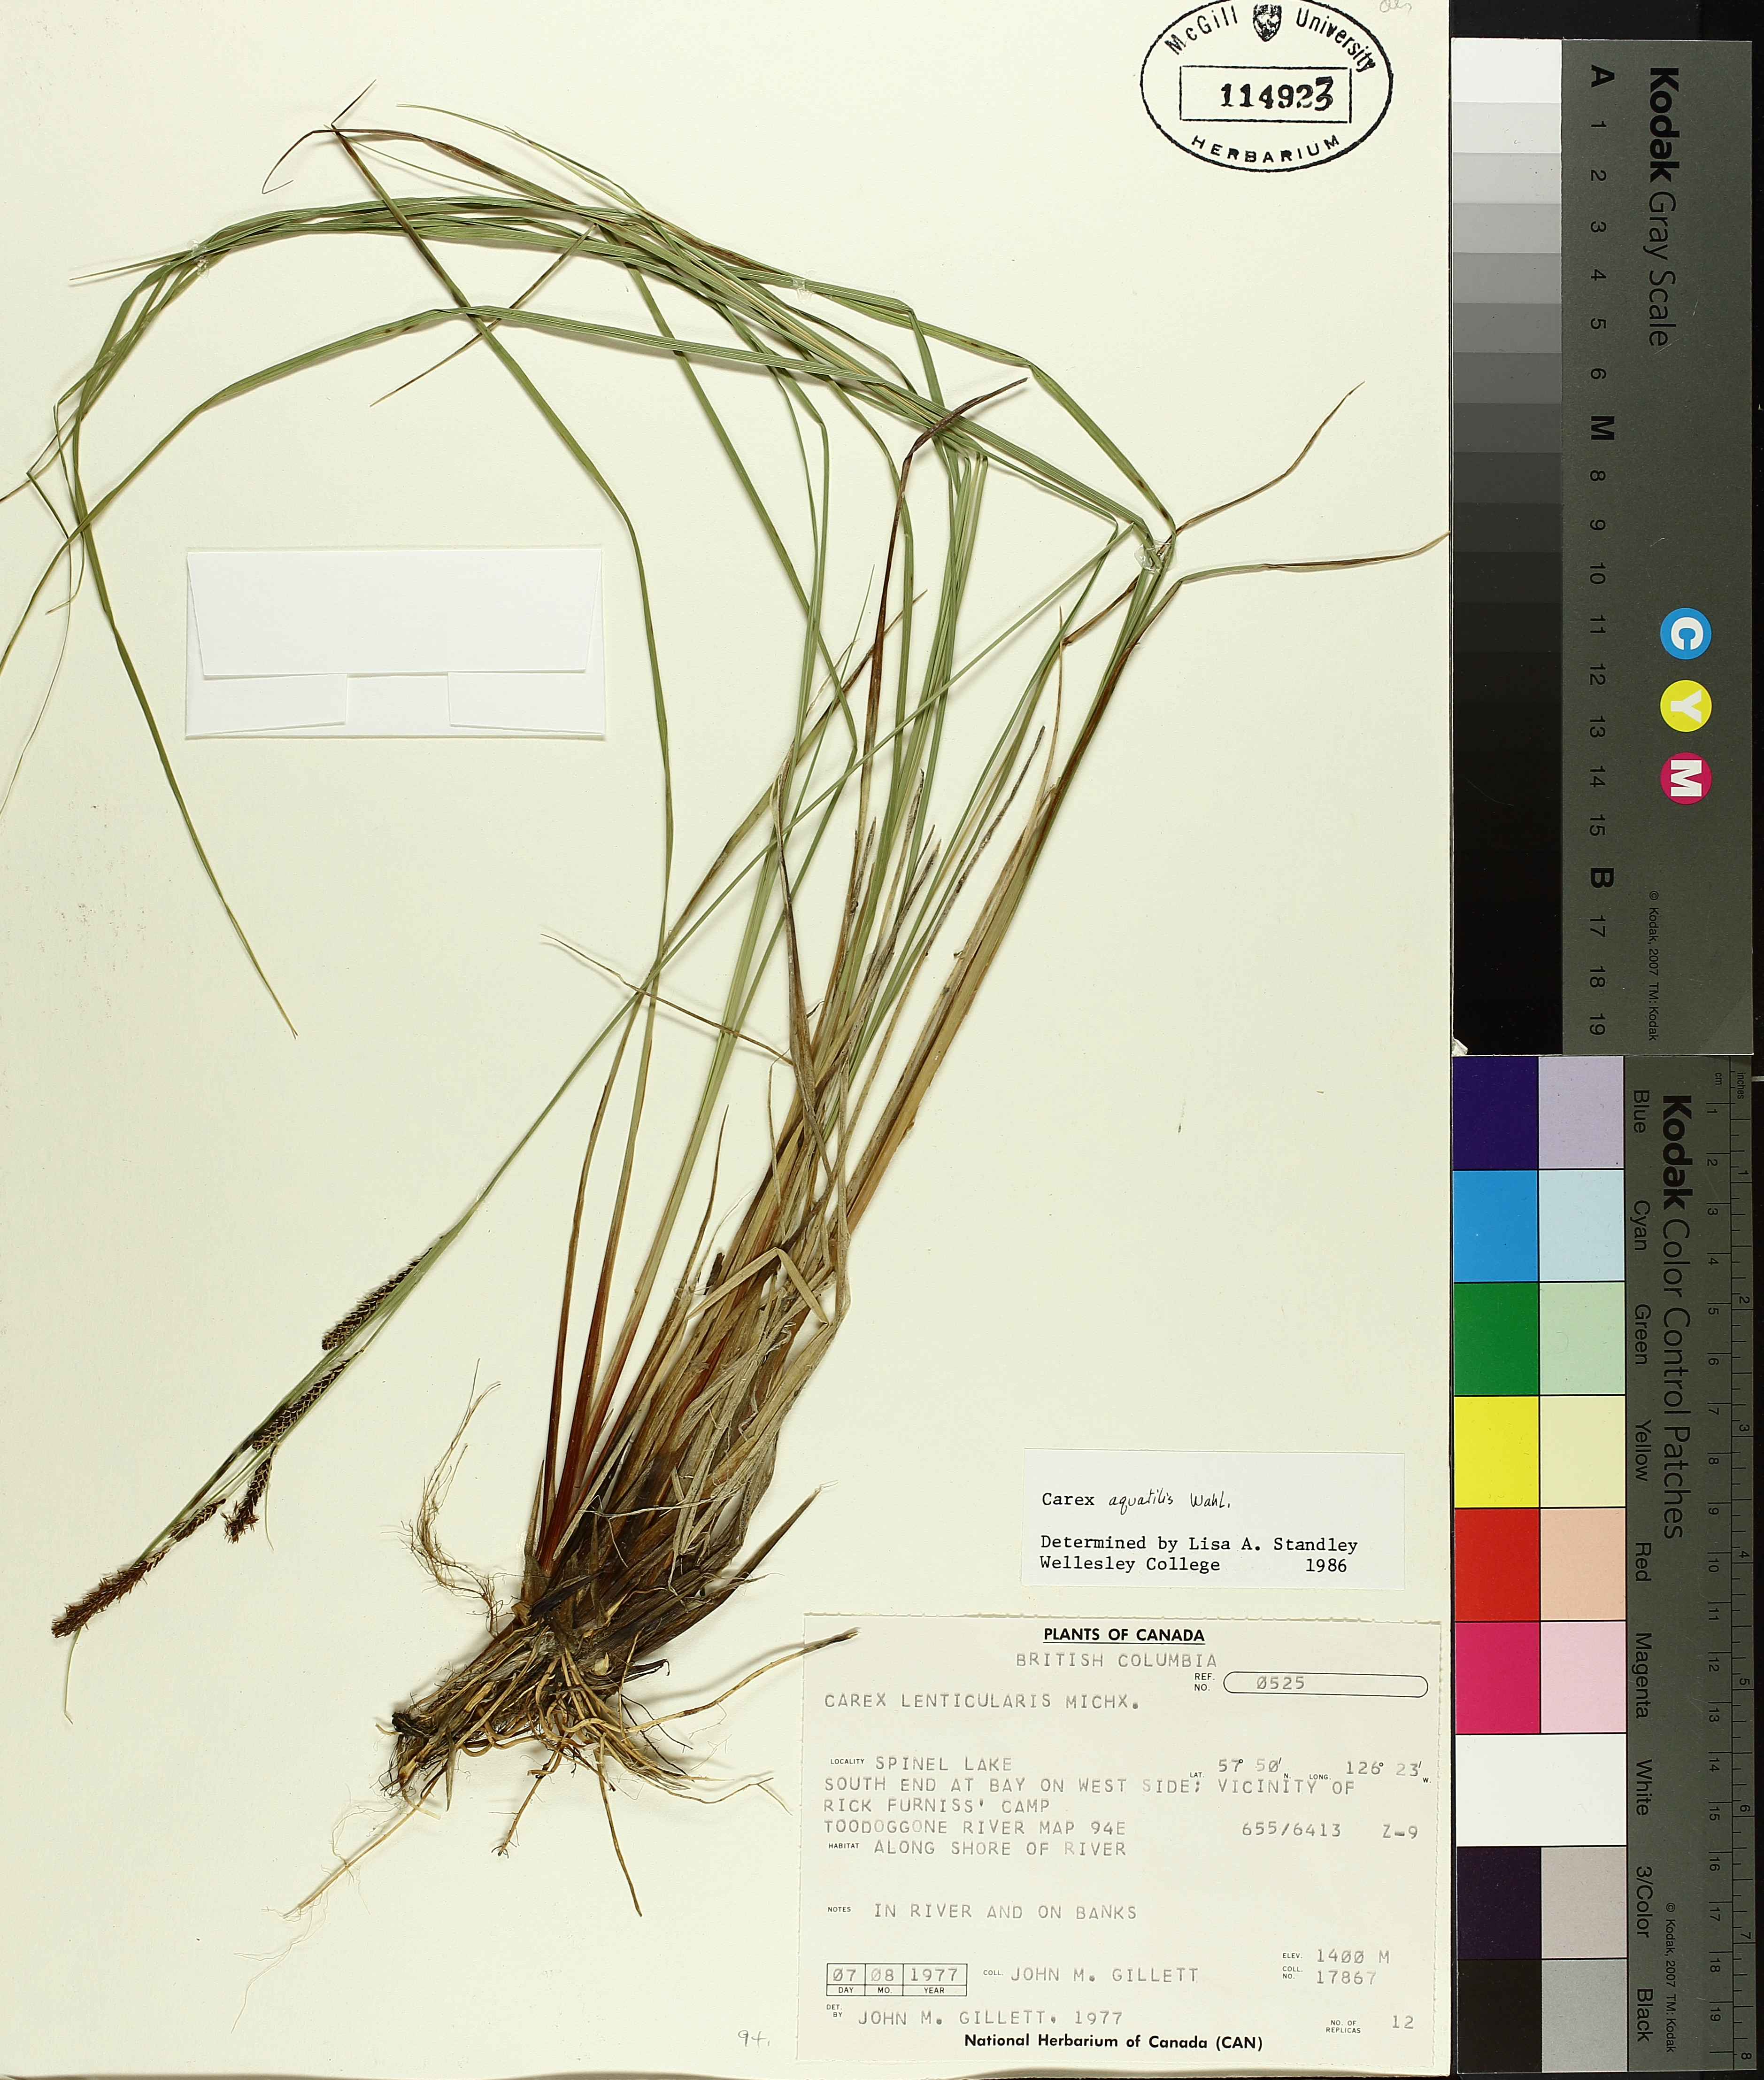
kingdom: Plantae
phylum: Tracheophyta
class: Liliopsida
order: Poales
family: Cyperaceae
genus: Carex
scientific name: Carex aquatilis
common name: Water sedge
